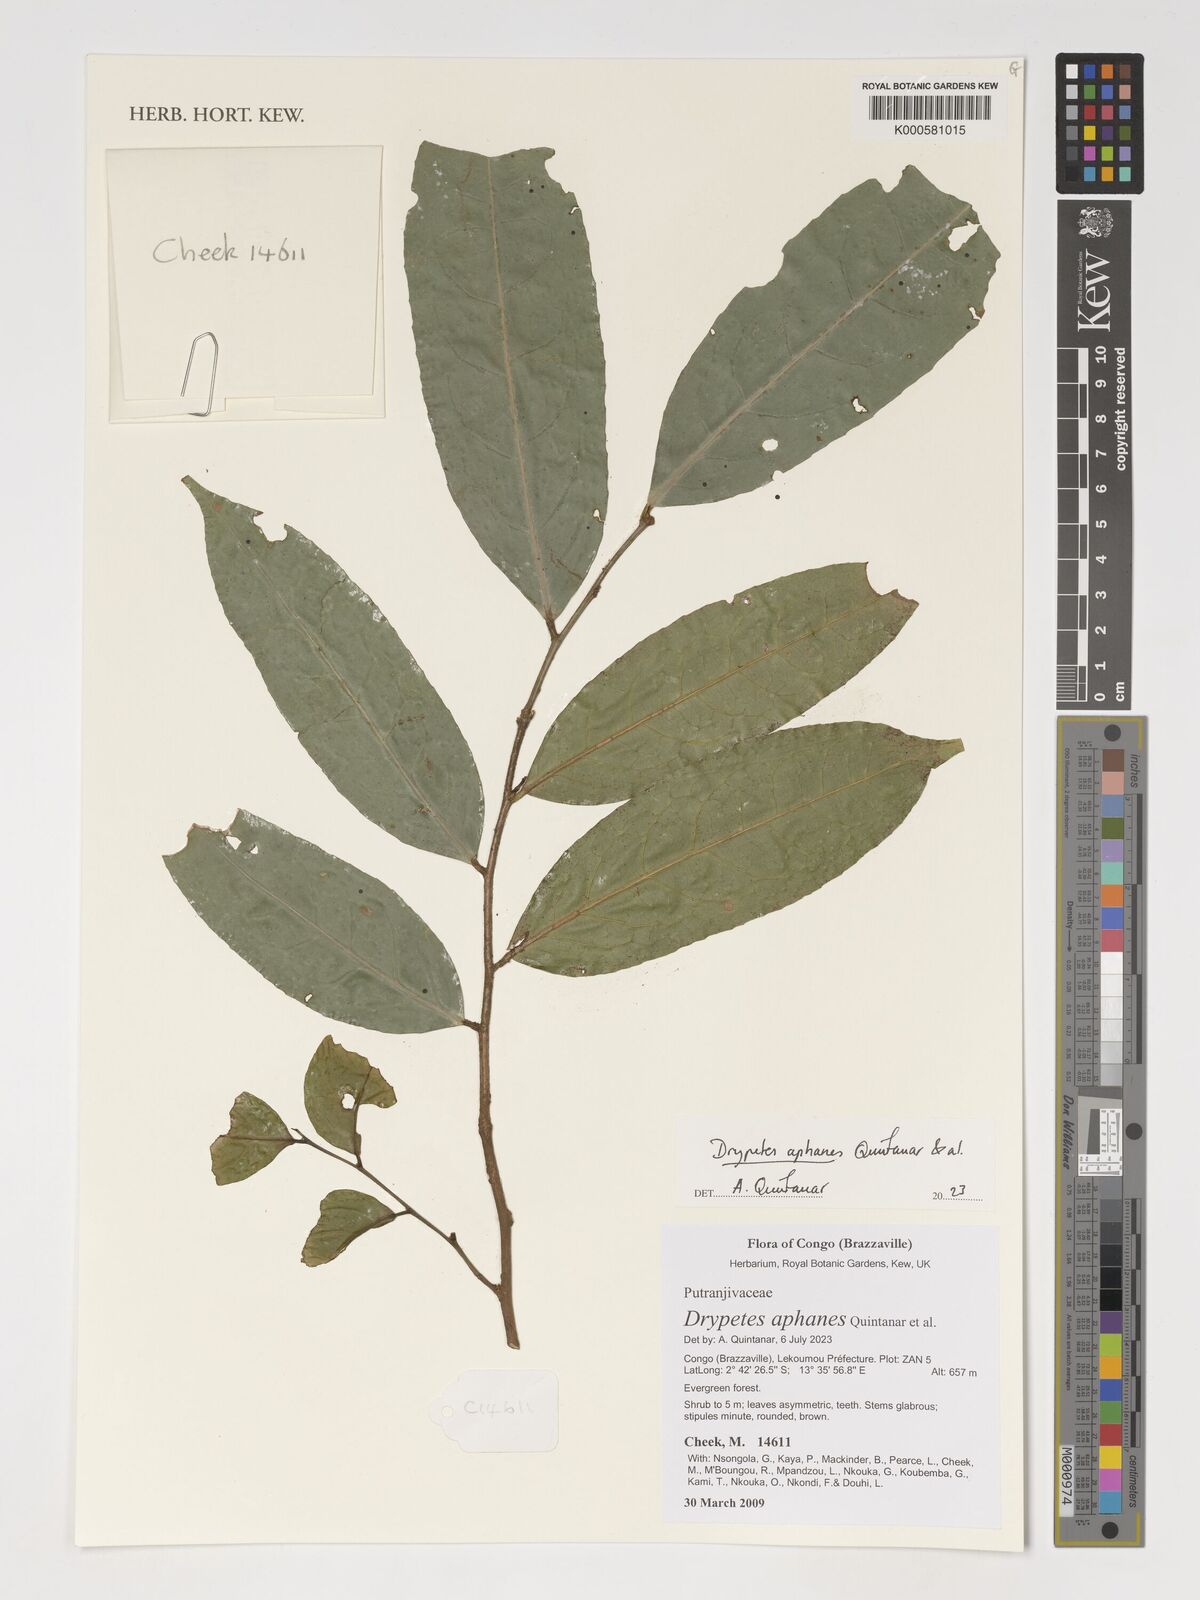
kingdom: Plantae
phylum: Tracheophyta
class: Magnoliopsida
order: Malpighiales
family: Putranjivaceae
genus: Drypetes
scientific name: Drypetes
